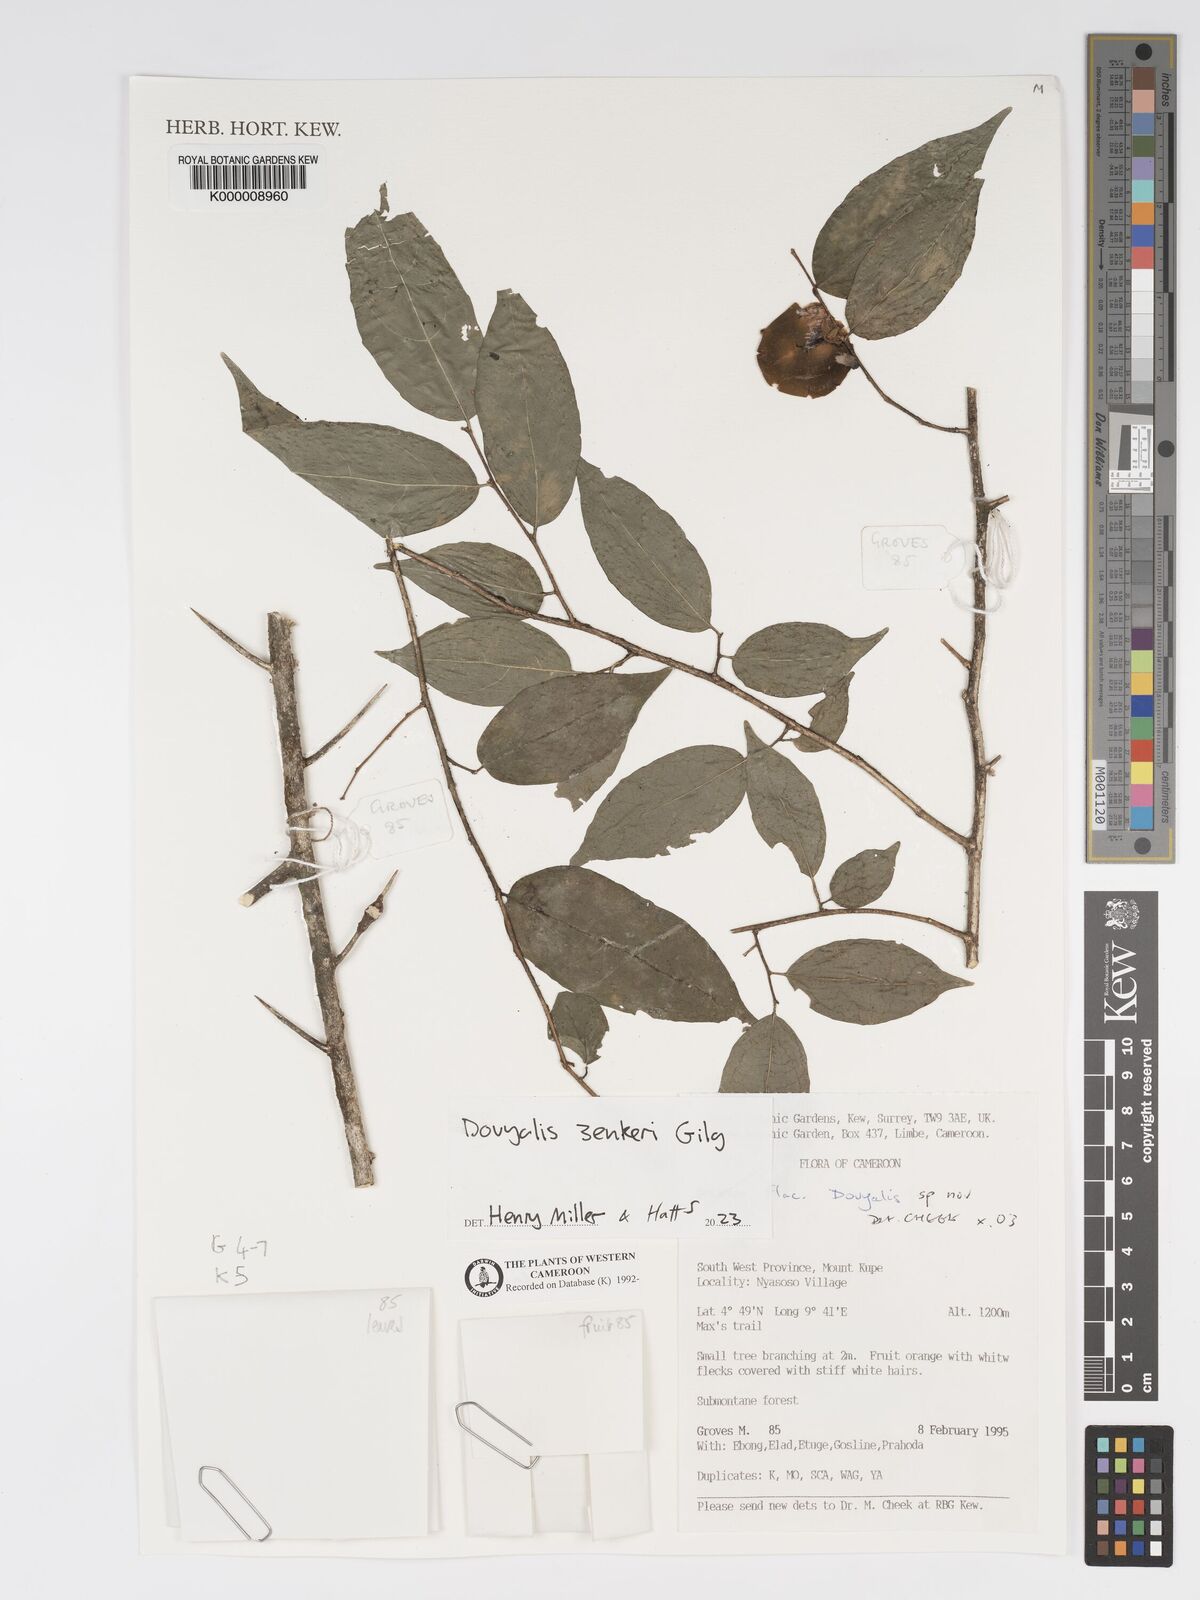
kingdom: Plantae
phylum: Tracheophyta
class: Magnoliopsida
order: Malpighiales
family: Salicaceae
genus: Dovyalis
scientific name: Dovyalis
